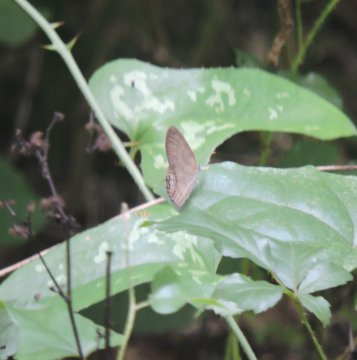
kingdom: Animalia
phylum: Arthropoda
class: Insecta
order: Lepidoptera
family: Nymphalidae
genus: Euptychia
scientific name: Euptychia cornelius
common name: Gemmed Satyr
